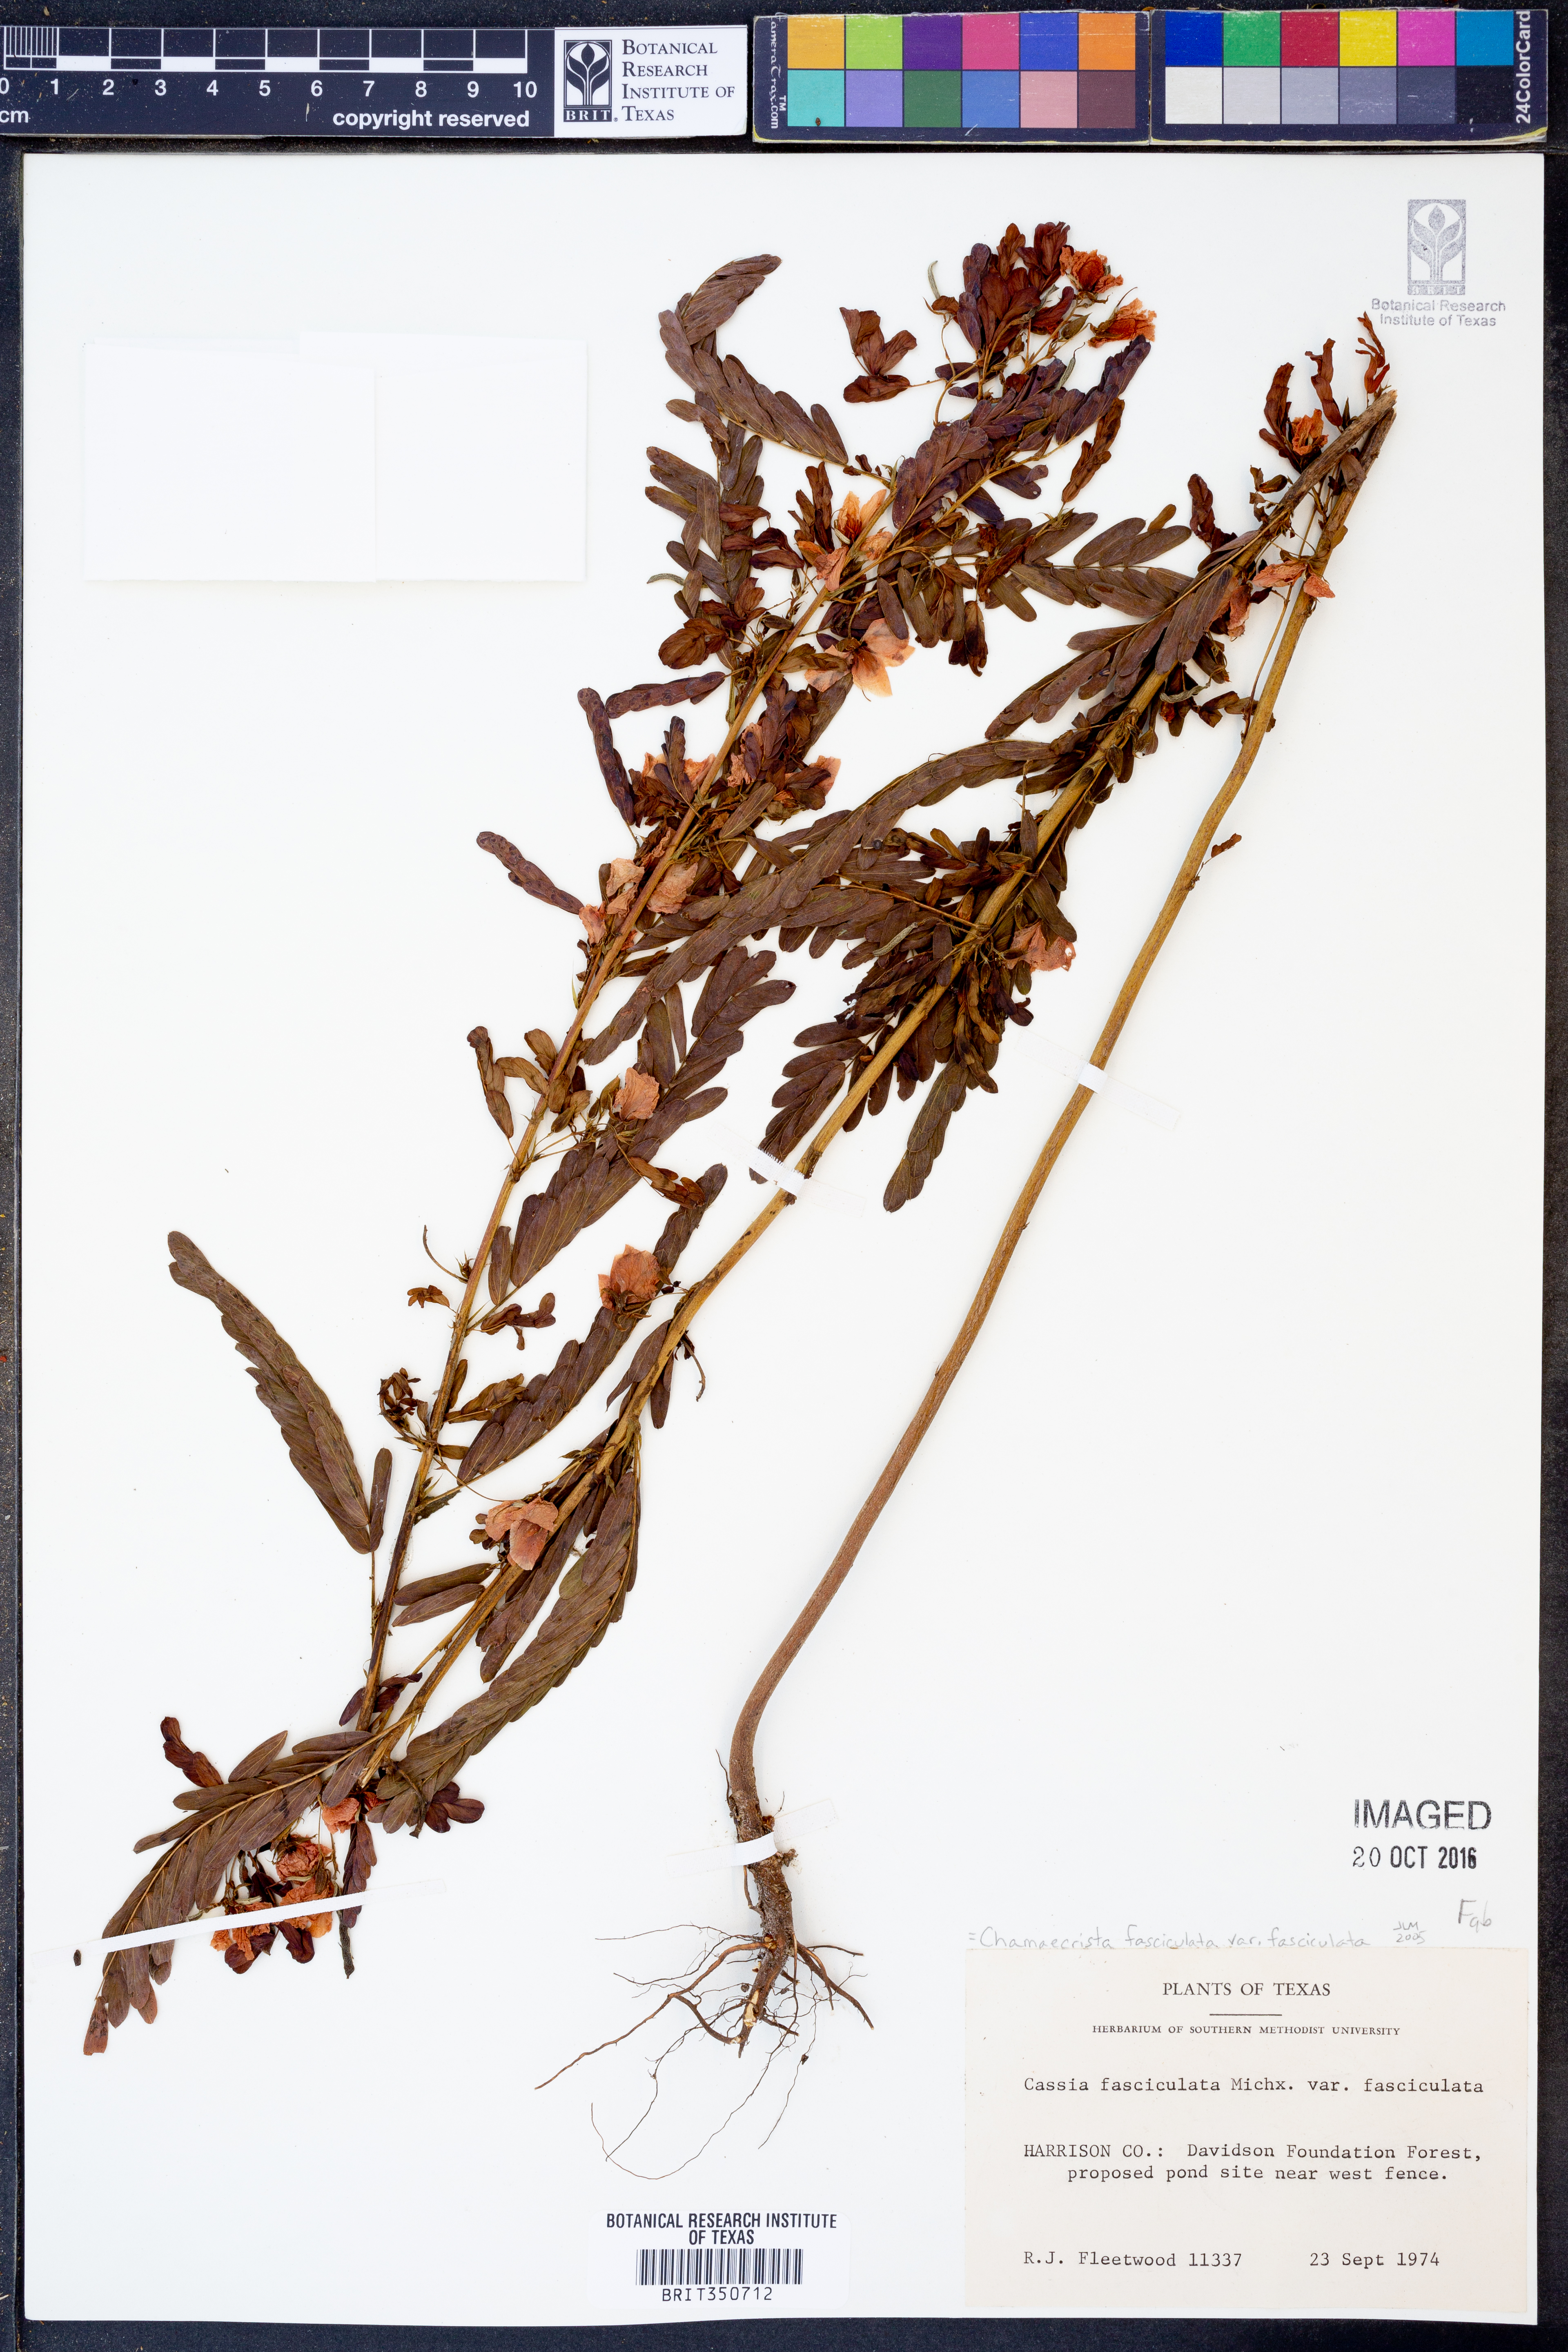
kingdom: Plantae
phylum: Tracheophyta
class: Magnoliopsida
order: Fabales
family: Fabaceae
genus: Chamaecrista
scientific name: Chamaecrista fasciculata
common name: Golden cassia
